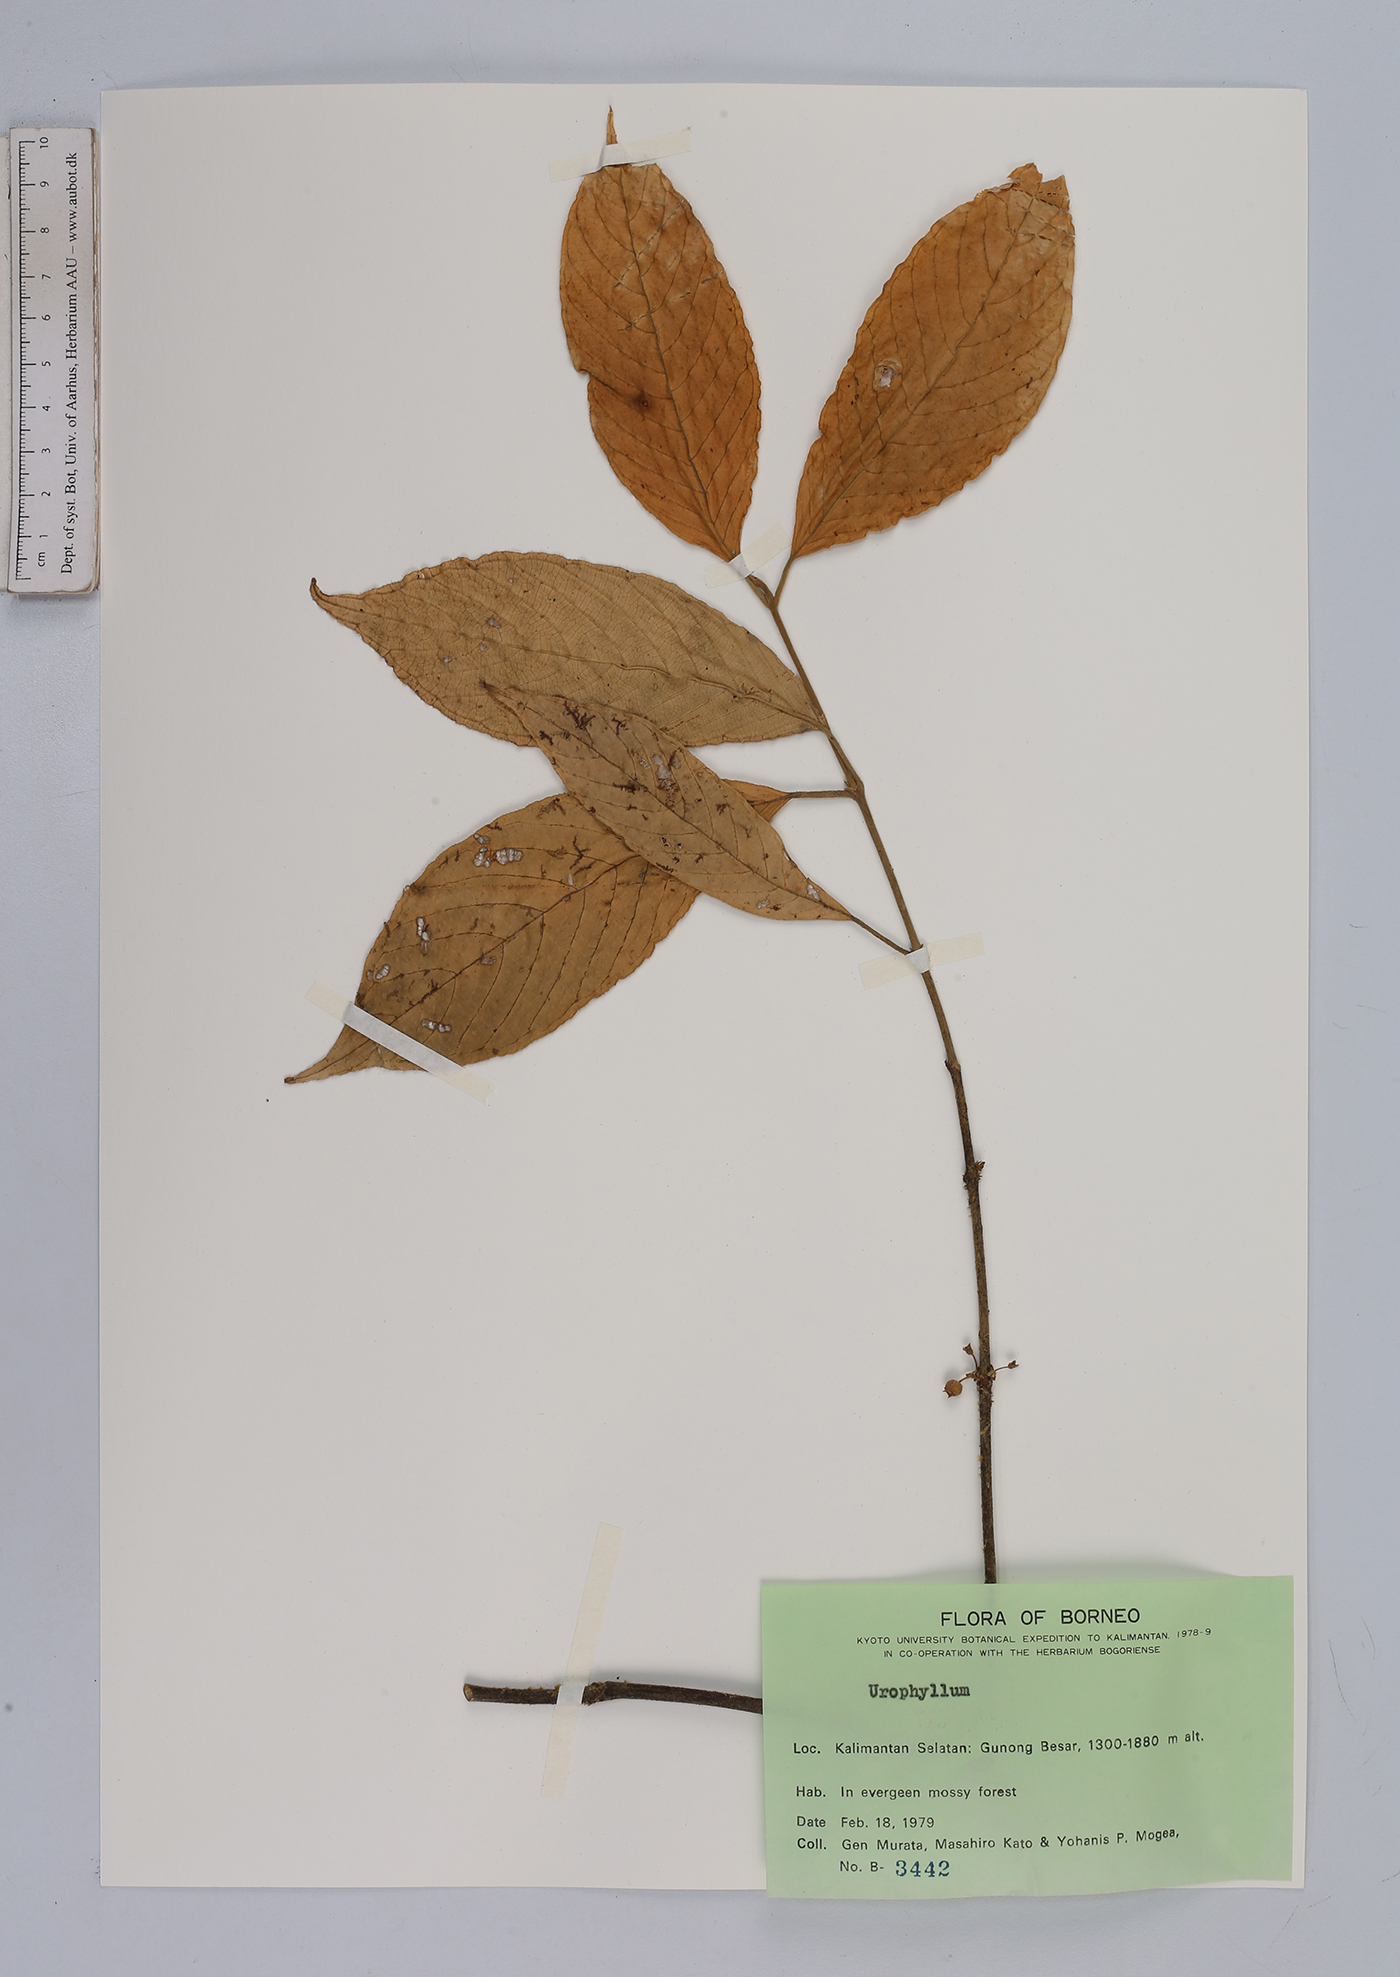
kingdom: Plantae
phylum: Tracheophyta
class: Magnoliopsida
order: Gentianales
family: Rubiaceae
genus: Urophyllum
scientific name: Urophyllum
